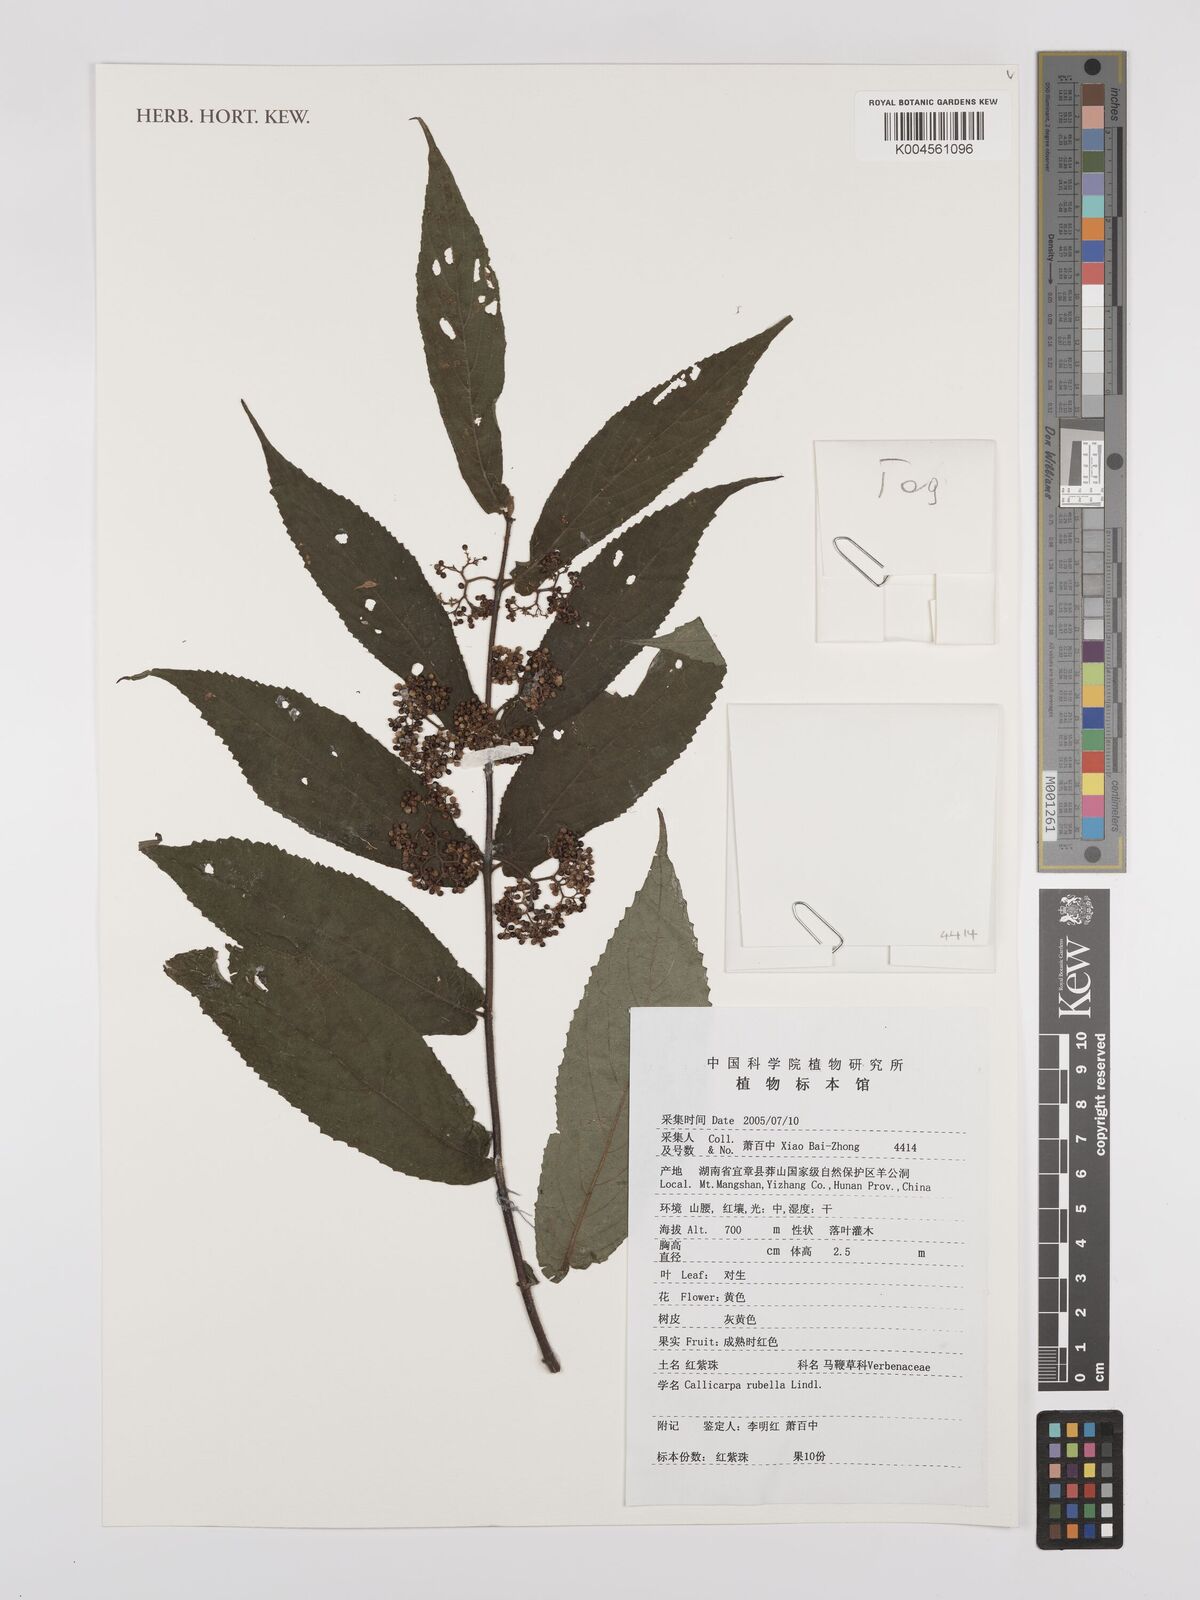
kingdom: Plantae
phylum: Tracheophyta
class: Magnoliopsida
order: Lamiales
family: Lamiaceae
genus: Callicarpa
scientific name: Callicarpa rubella
